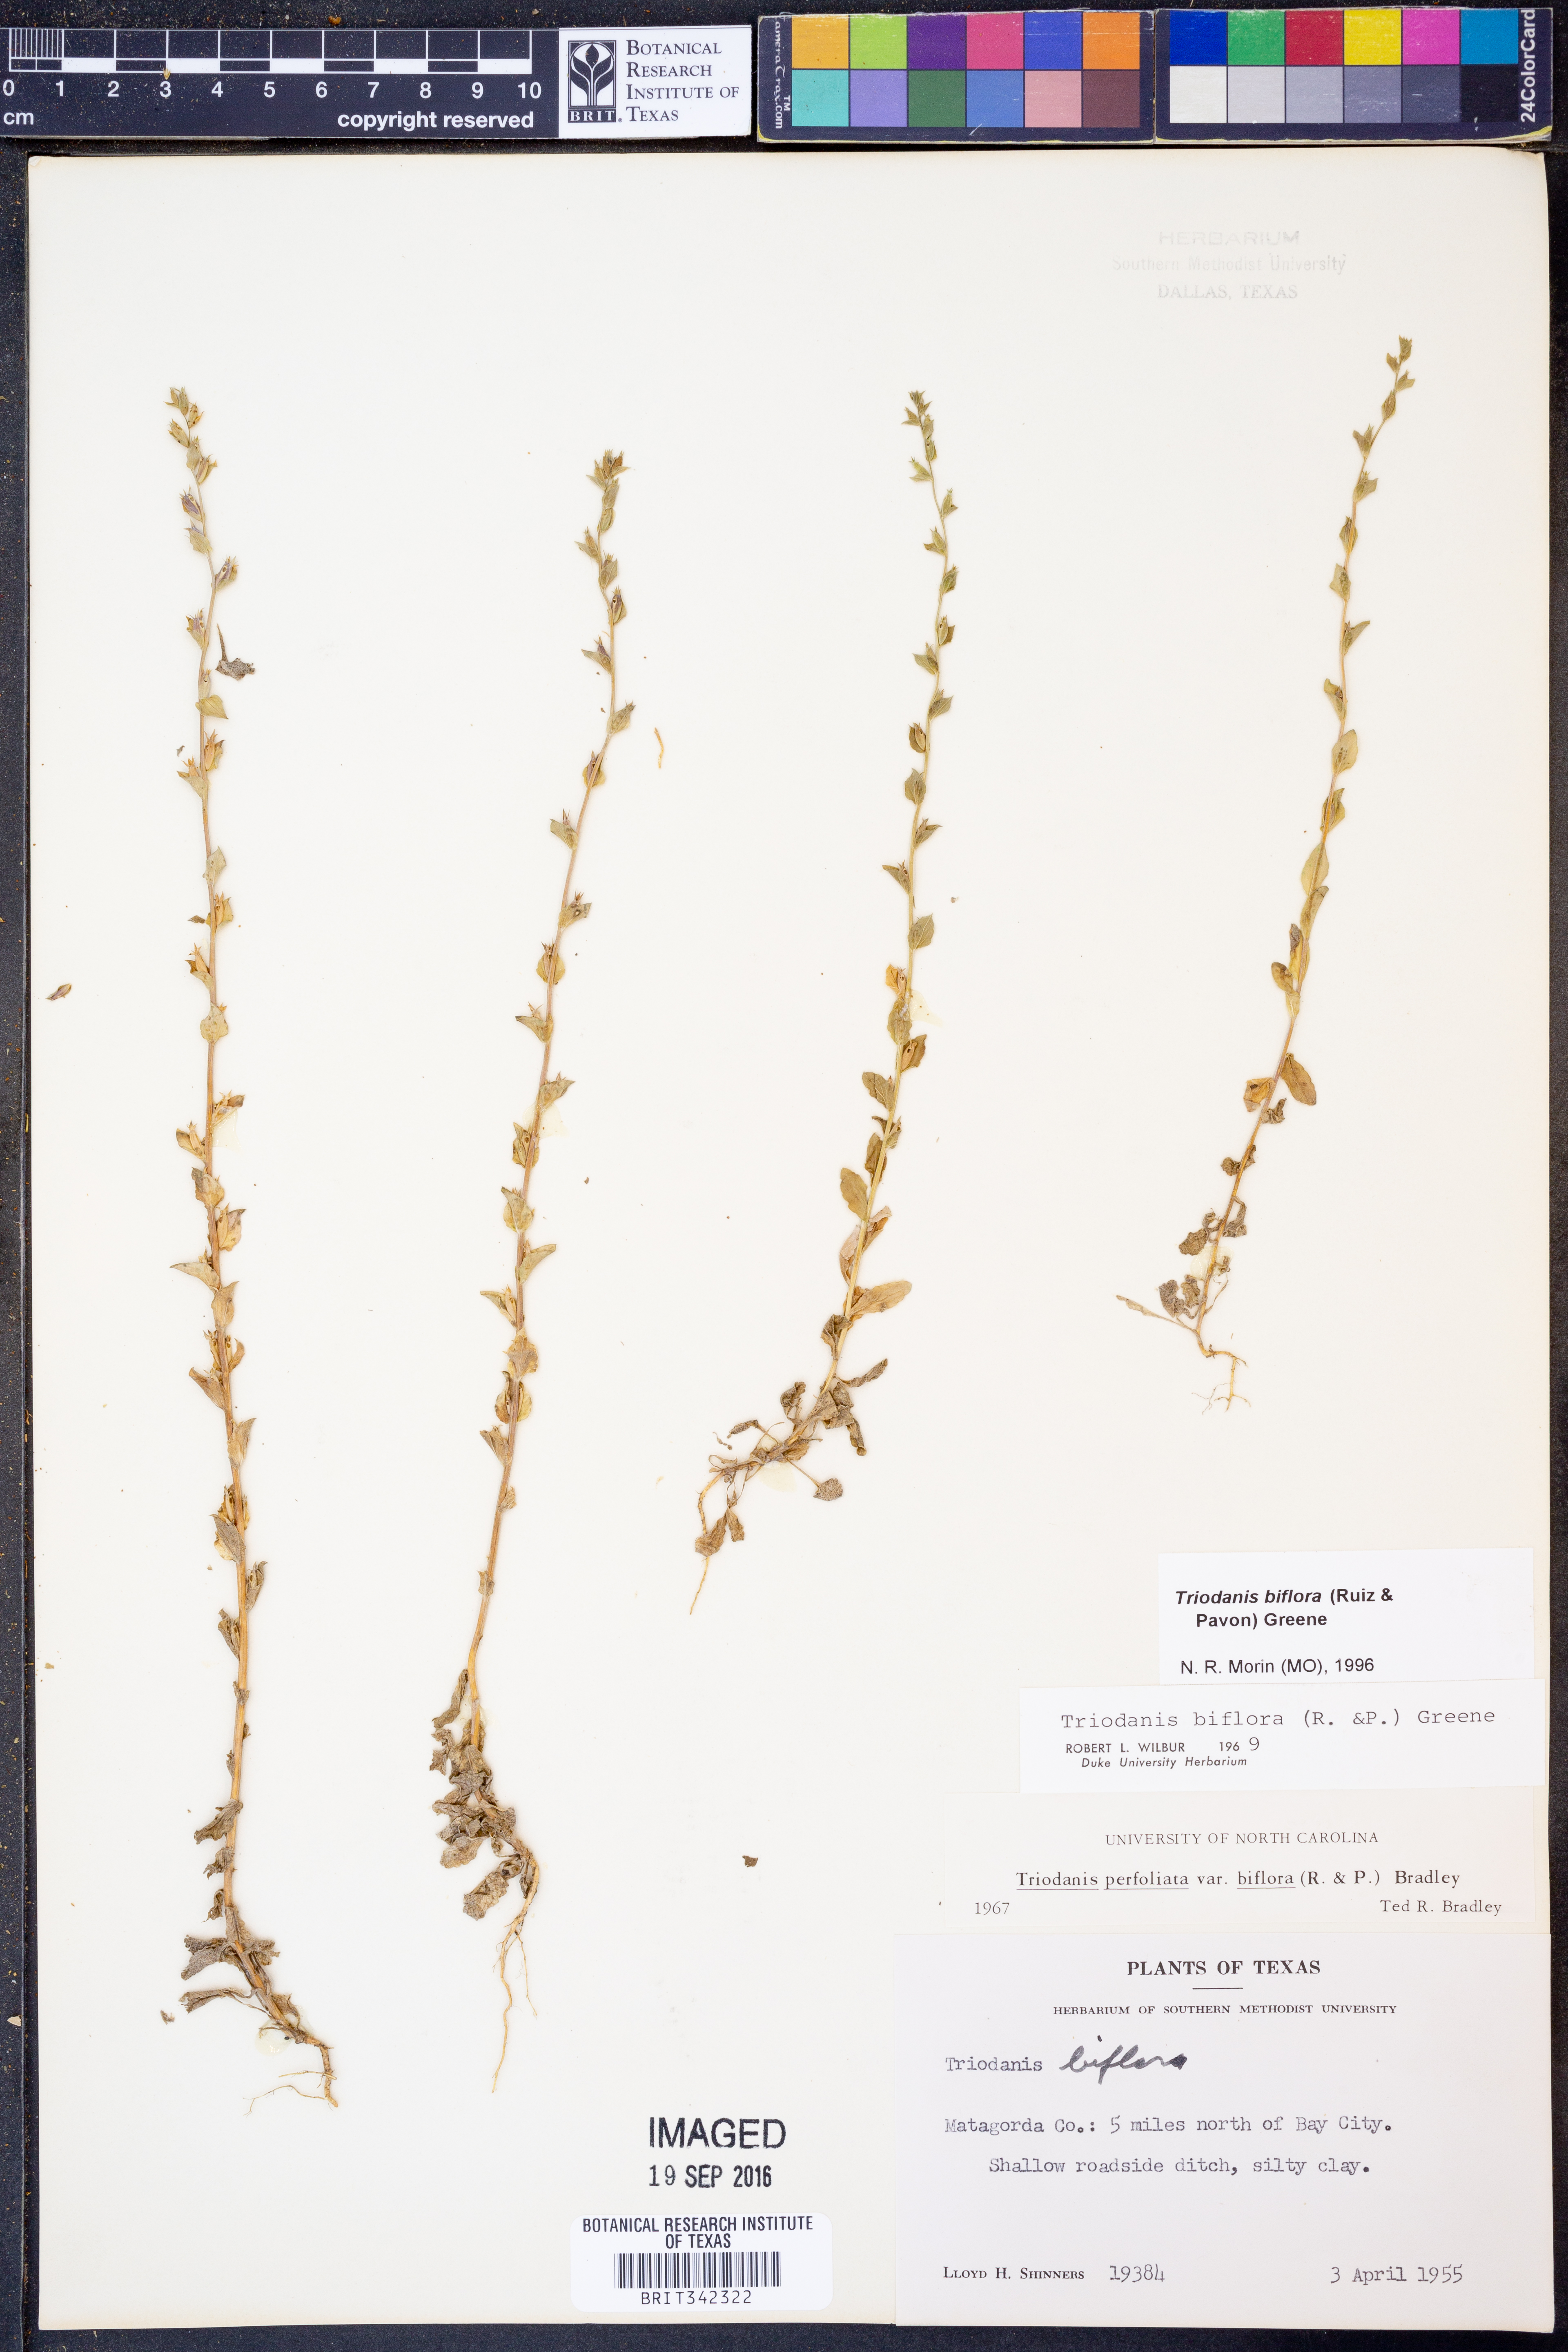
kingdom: Plantae
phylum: Tracheophyta
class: Magnoliopsida
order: Asterales
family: Campanulaceae
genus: Triodanis
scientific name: Triodanis perfoliata
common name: Clasping venus' looking-glass
